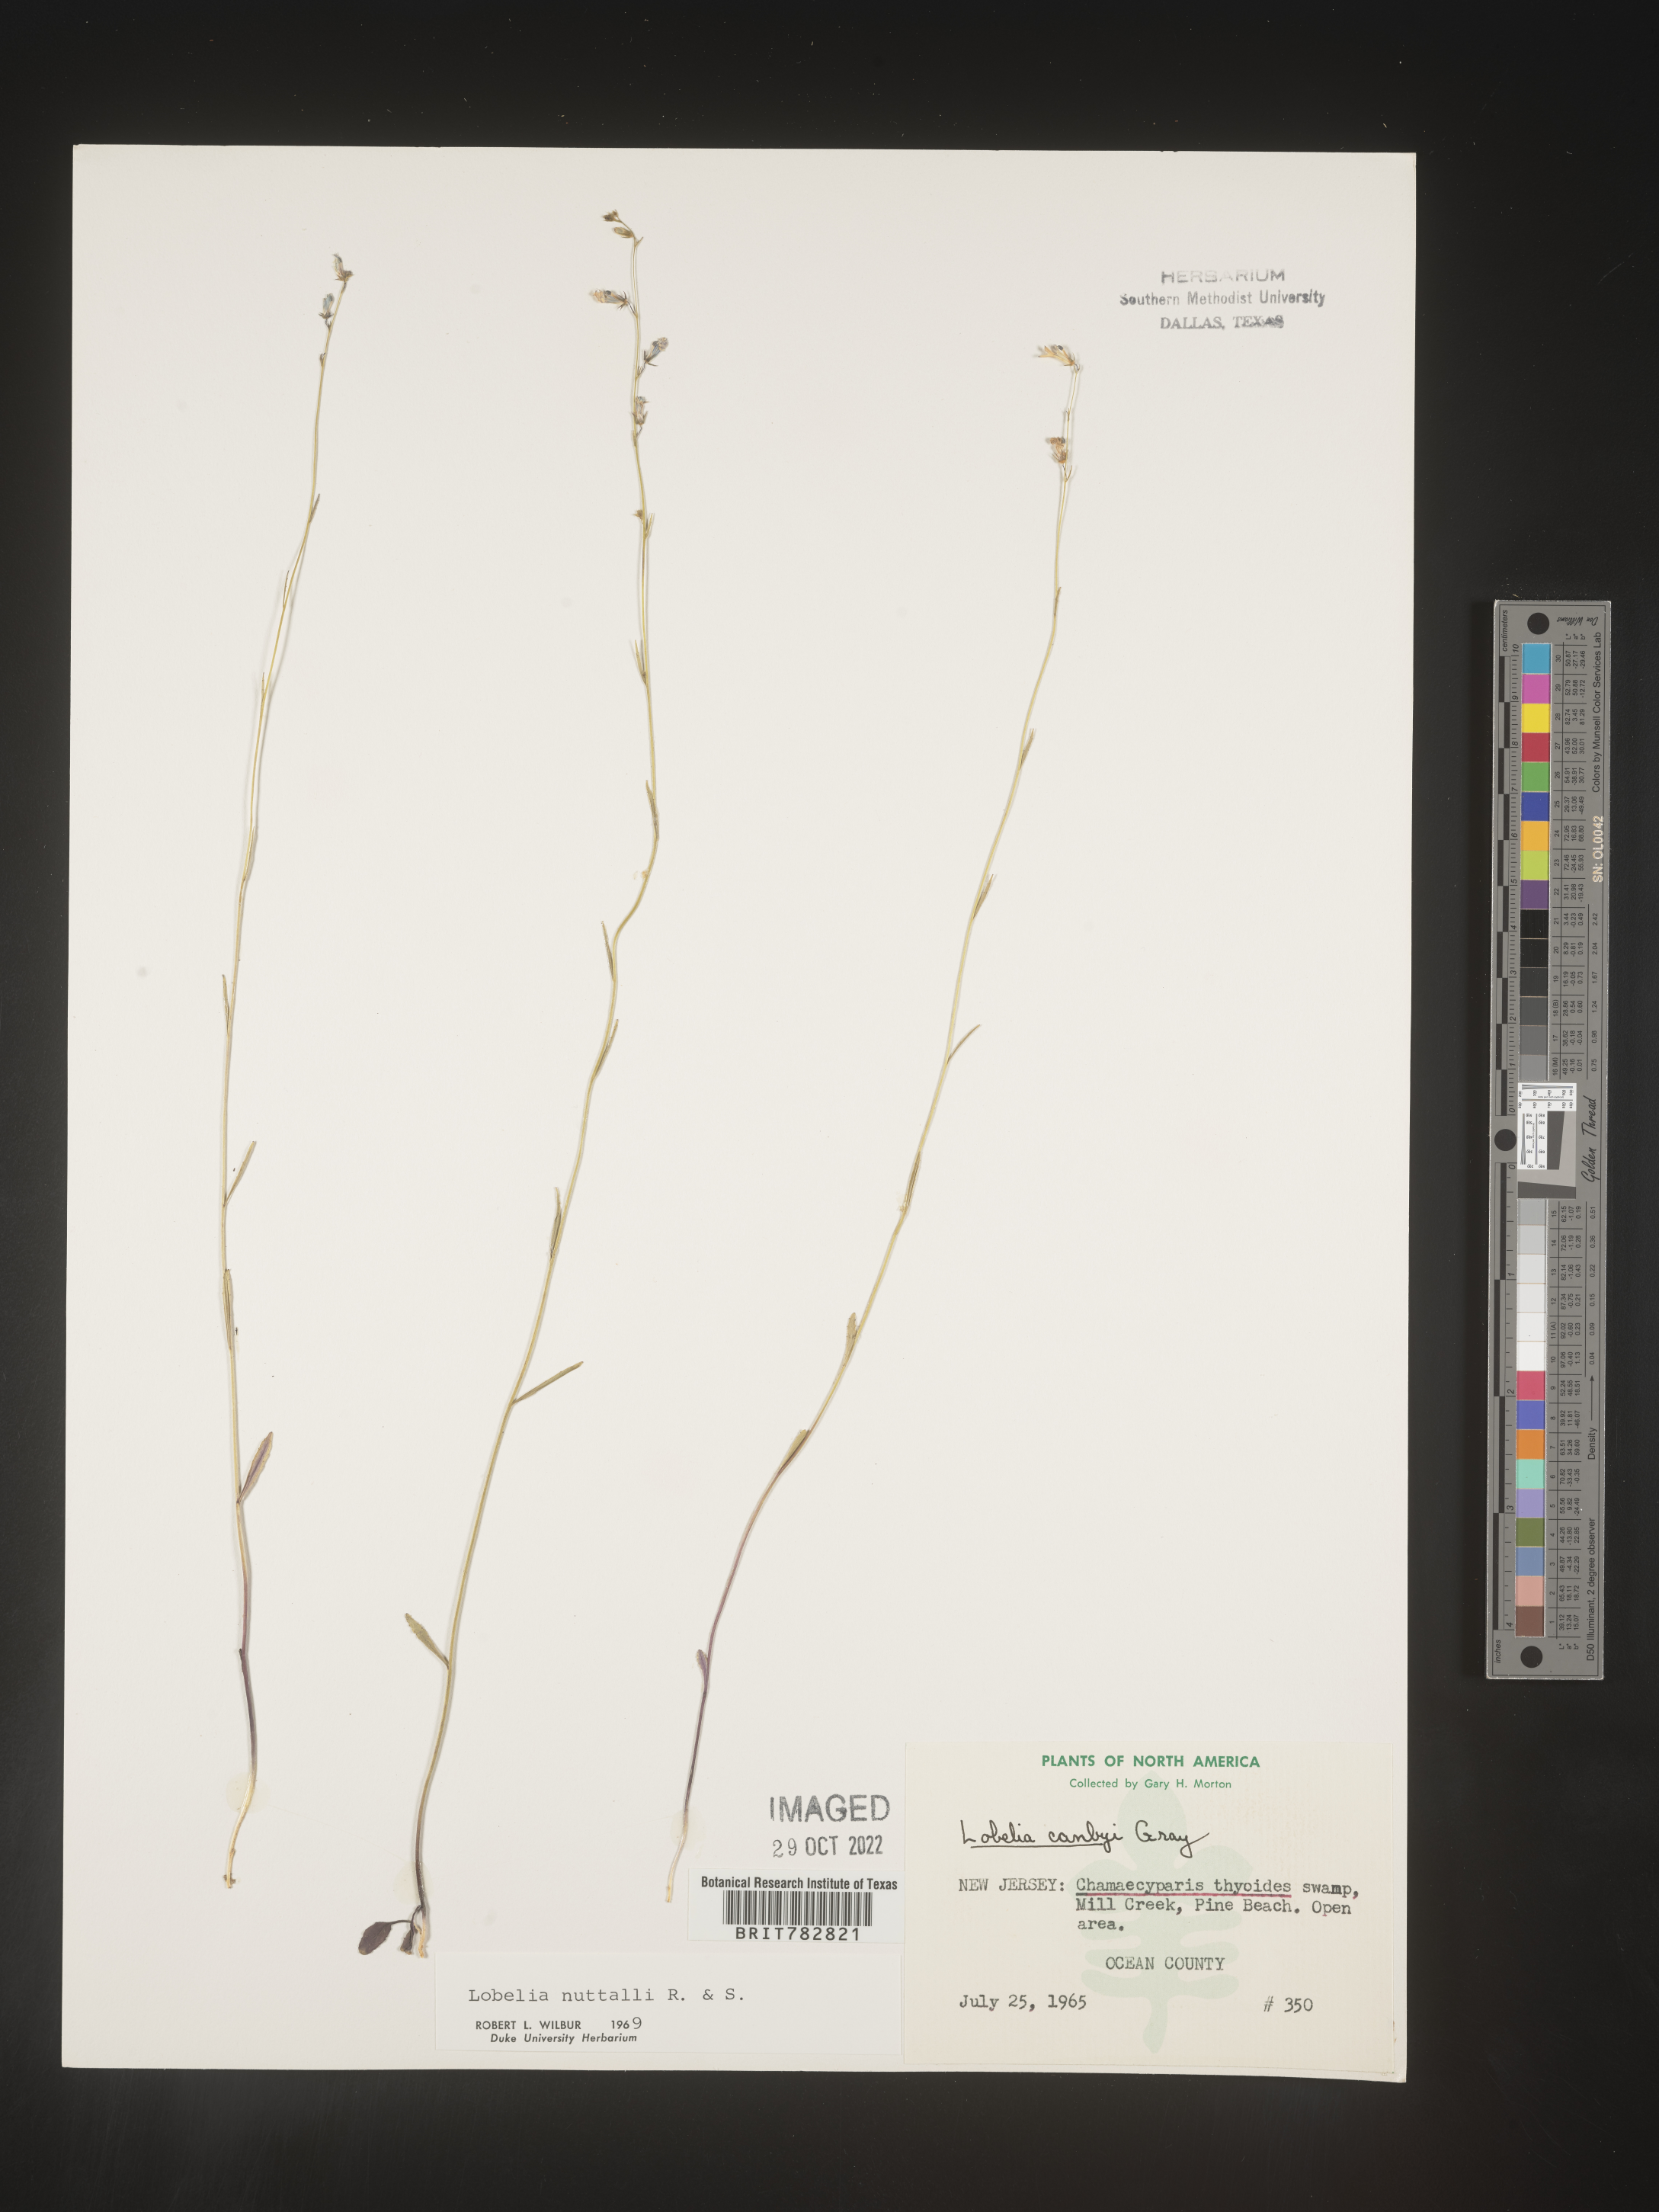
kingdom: Plantae
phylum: Tracheophyta
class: Magnoliopsida
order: Asterales
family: Campanulaceae
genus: Lobelia
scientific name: Lobelia nuttallii
